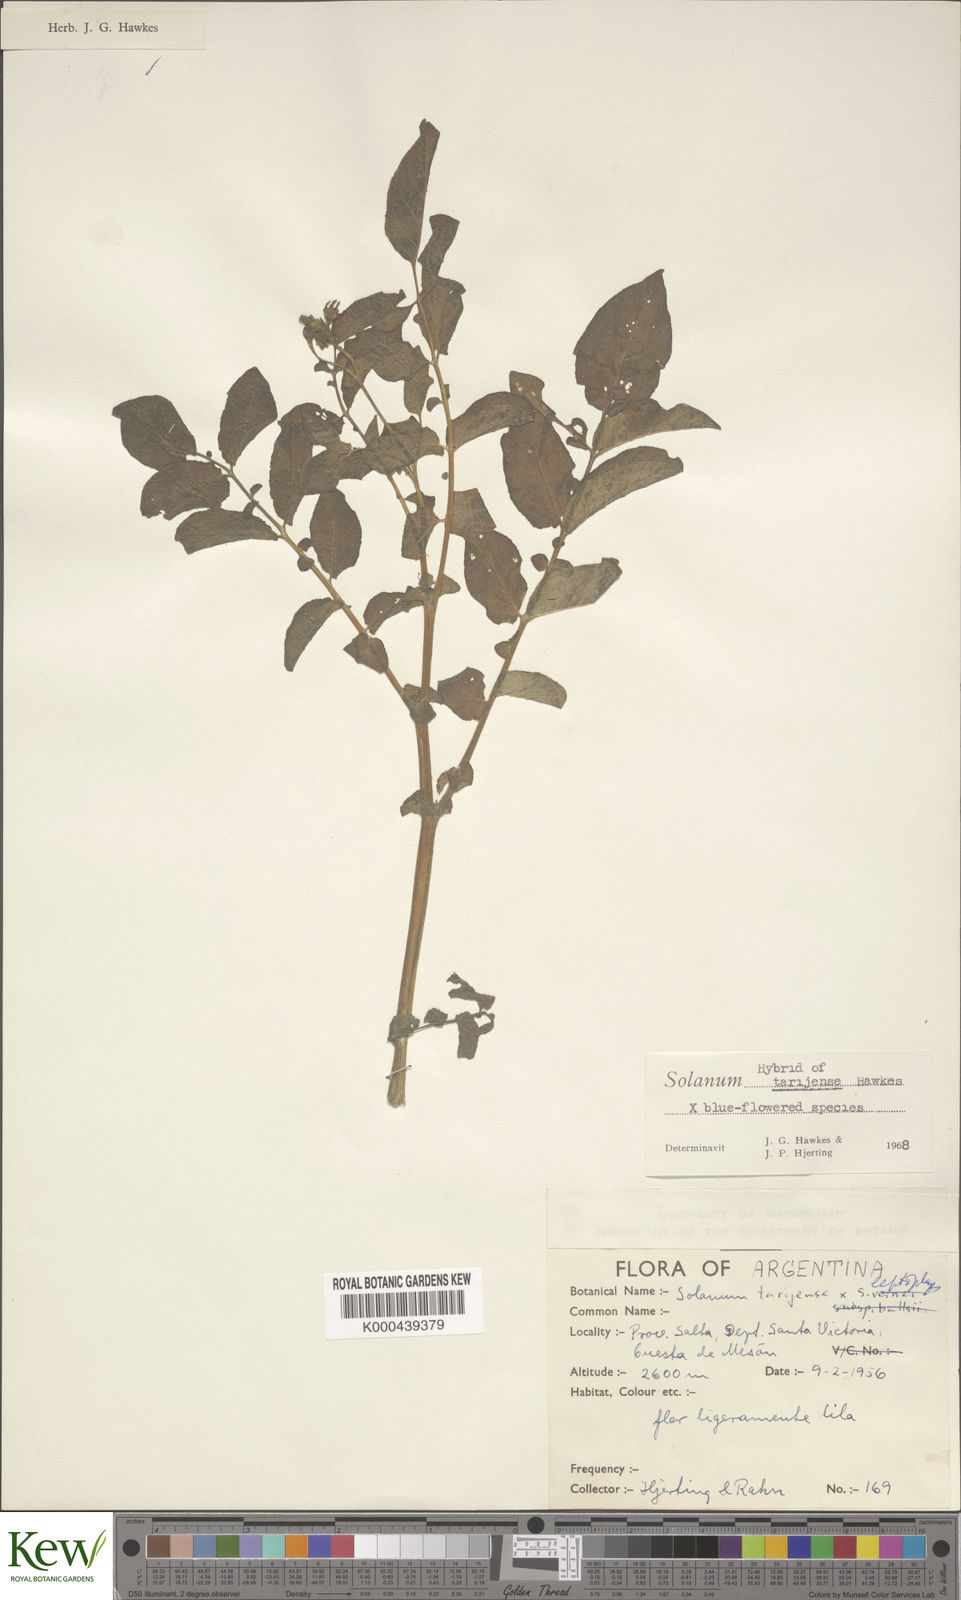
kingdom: Plantae
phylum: Tracheophyta
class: Magnoliopsida
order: Solanales
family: Solanaceae
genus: Solanum
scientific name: Solanum tarijense
